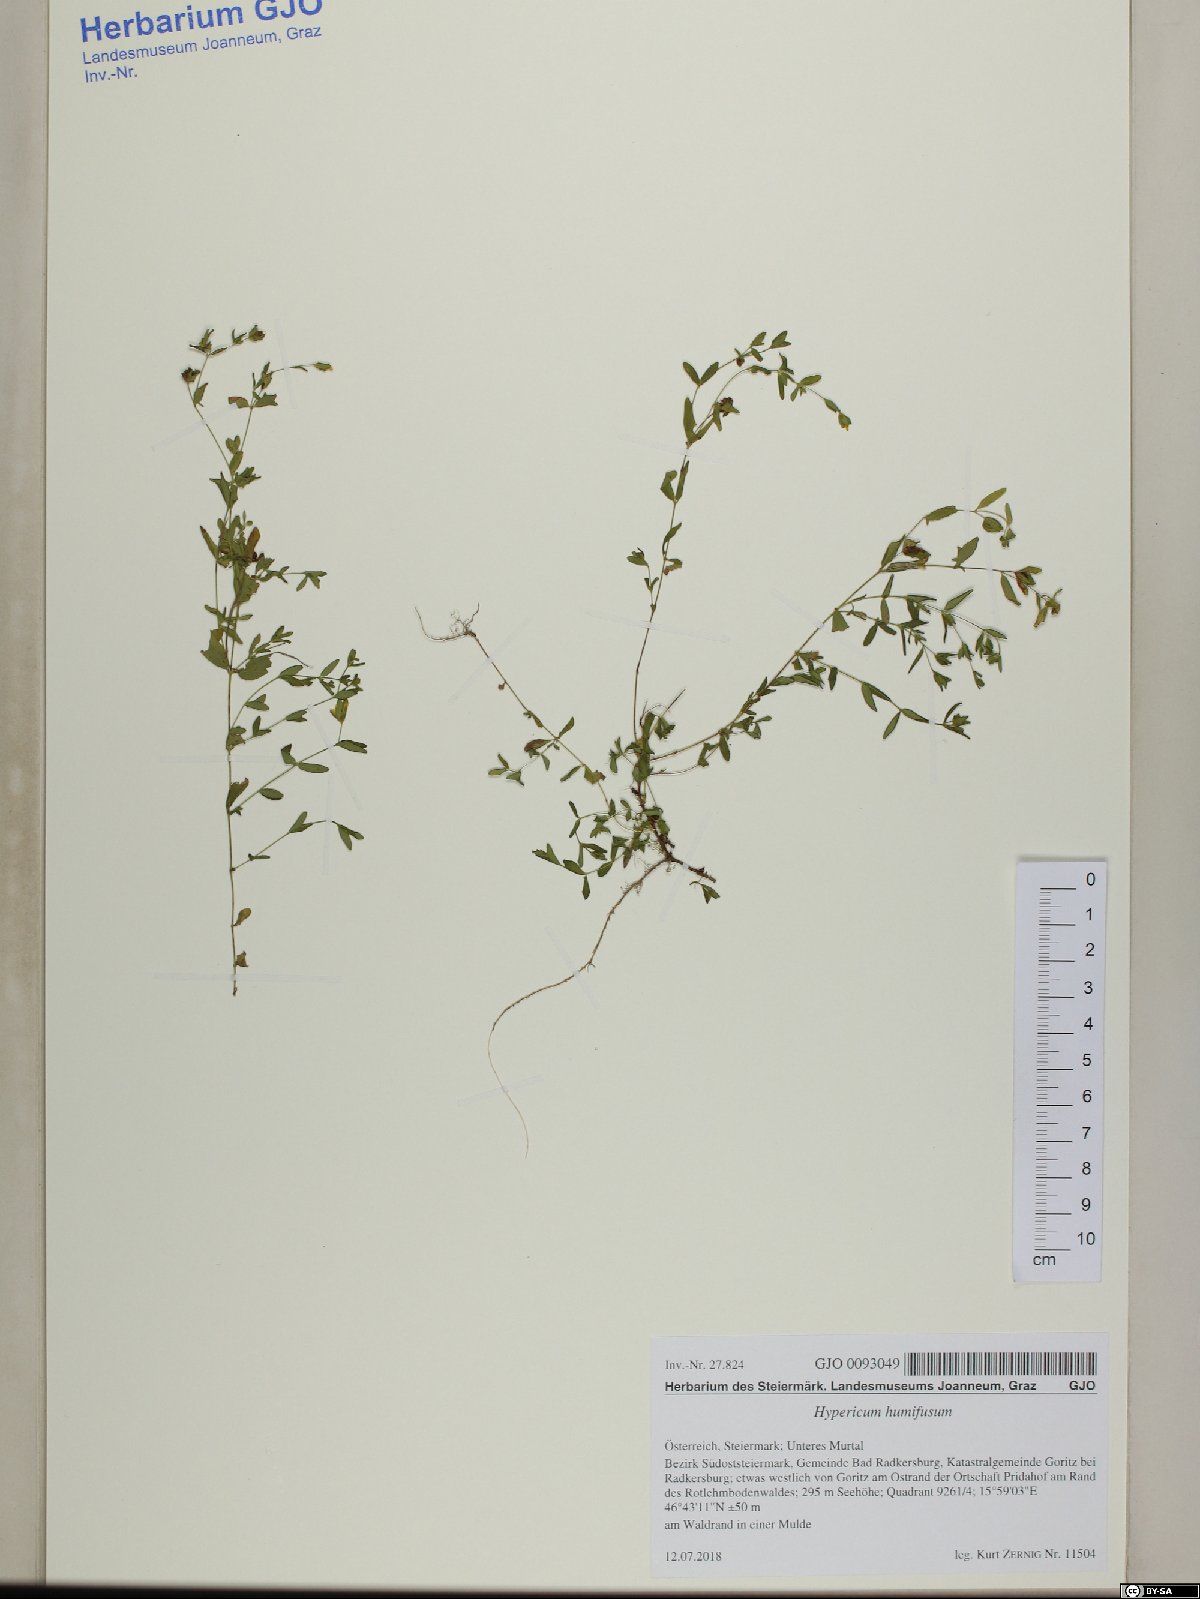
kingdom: Plantae
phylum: Tracheophyta
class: Magnoliopsida
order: Malpighiales
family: Hypericaceae
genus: Hypericum
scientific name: Hypericum humifusum
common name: Trailing st. john's-wort
